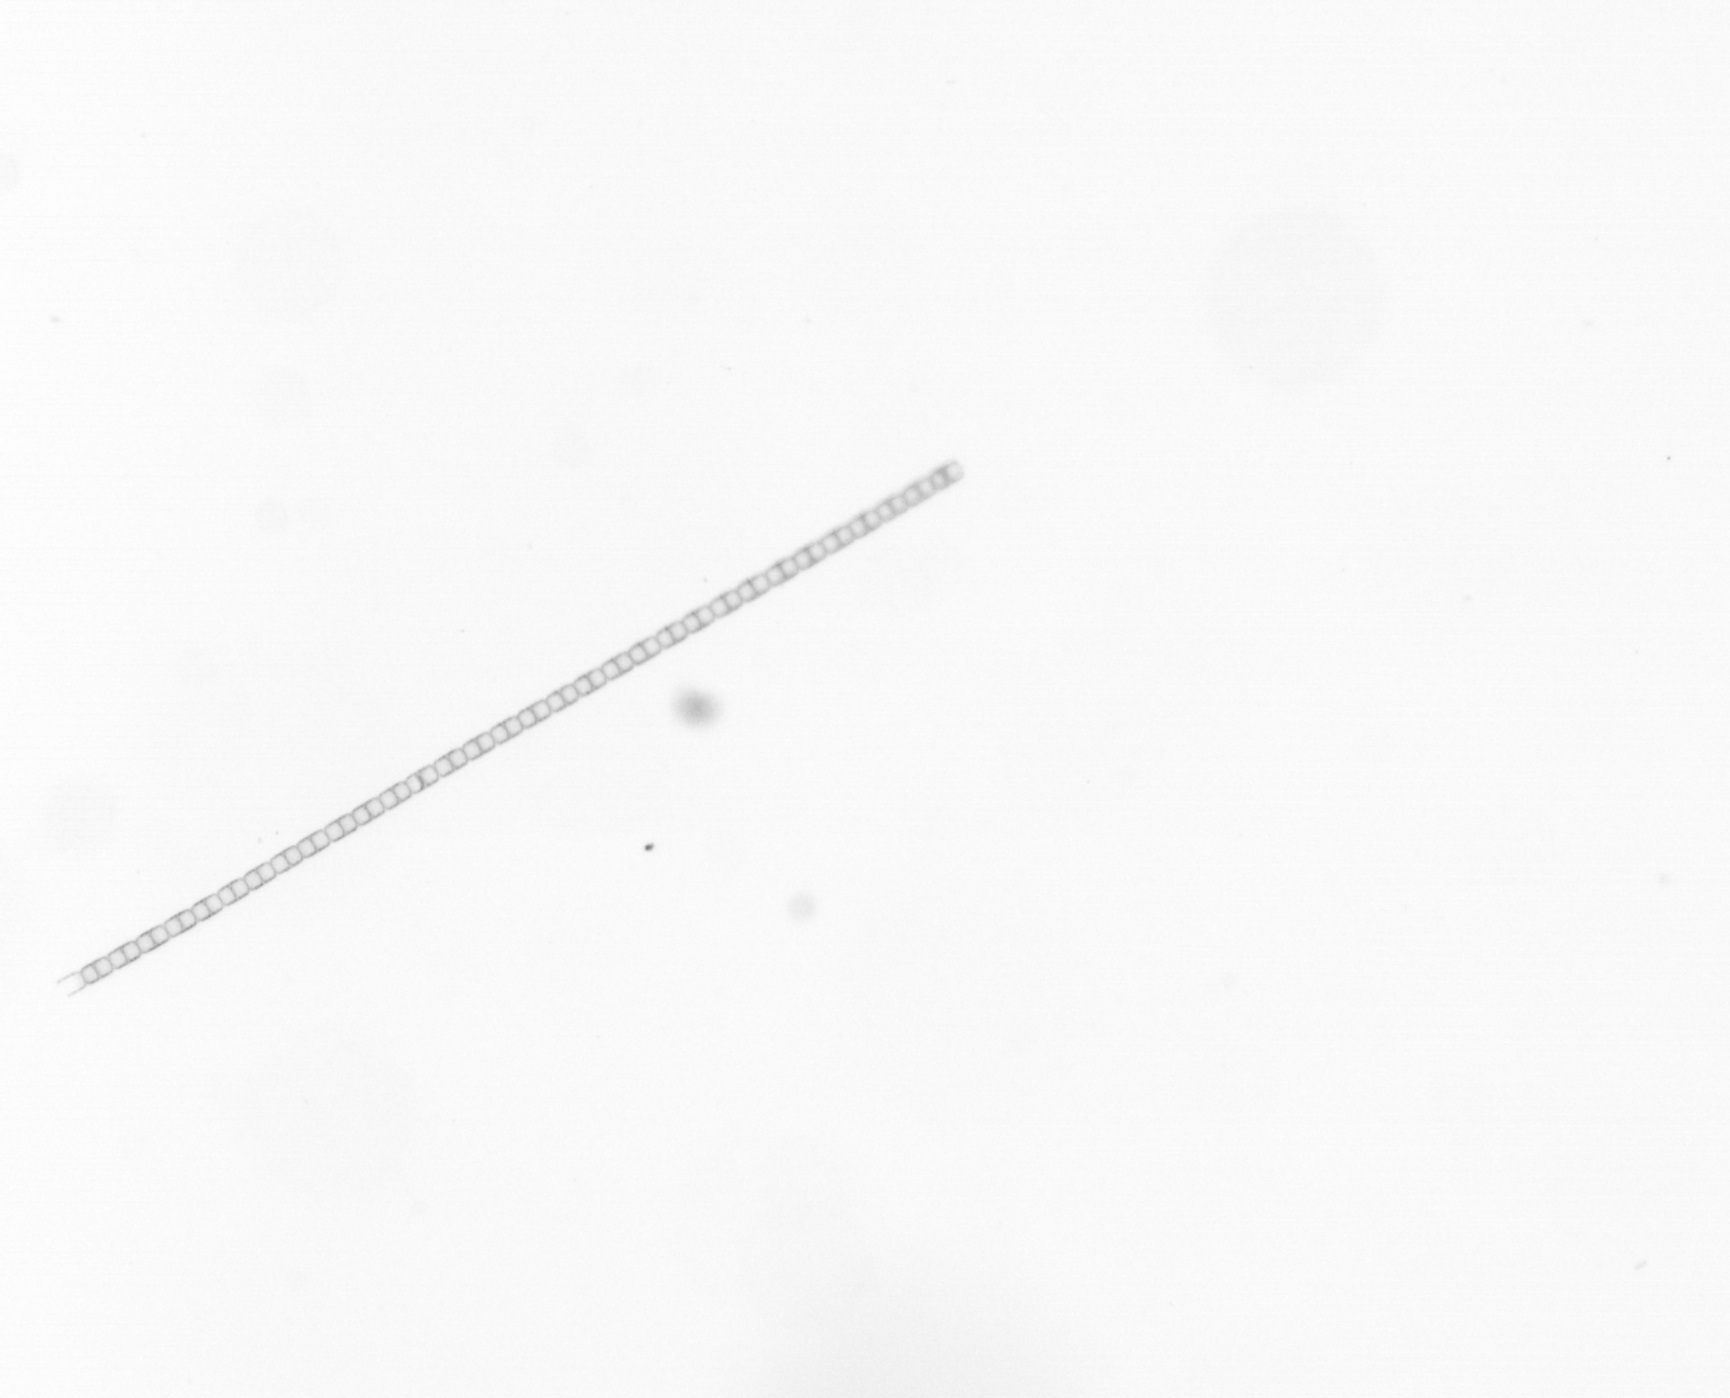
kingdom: Chromista
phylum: Ochrophyta
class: Bacillariophyceae
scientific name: Bacillariophyceae
